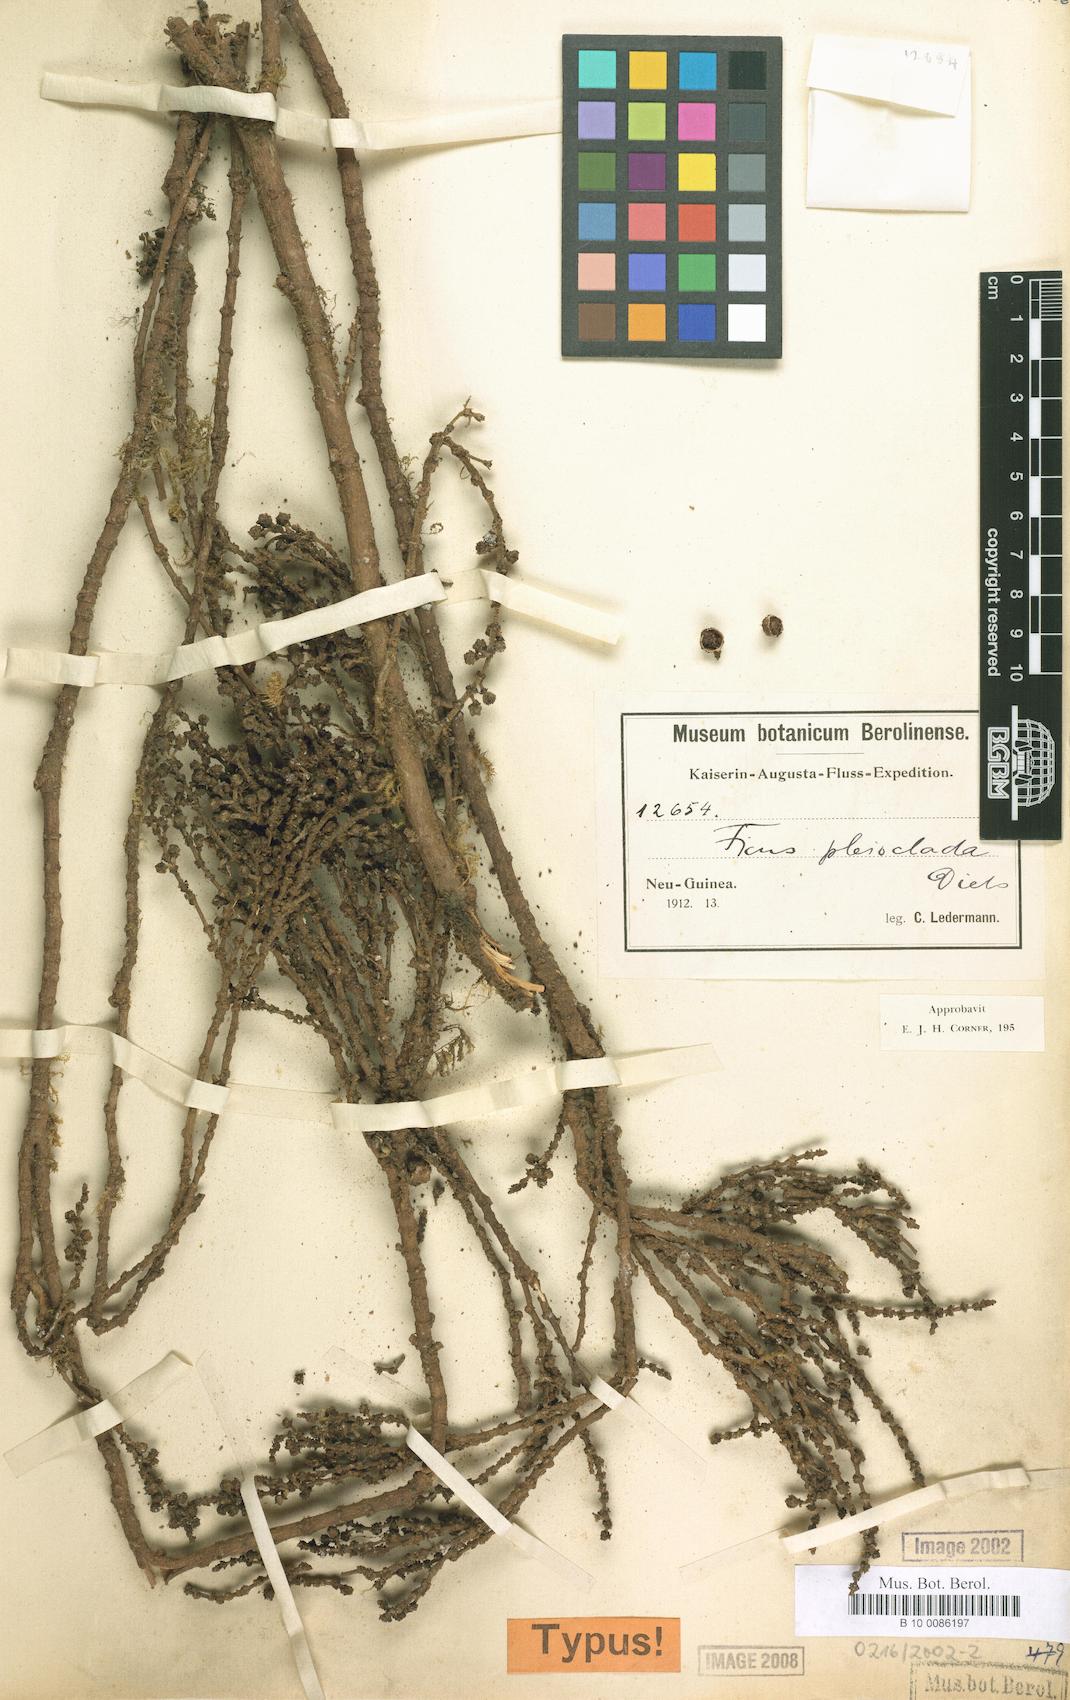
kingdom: Plantae
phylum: Tracheophyta
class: Magnoliopsida
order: Rosales
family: Moraceae
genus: Ficus
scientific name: Ficus trichocerasa
